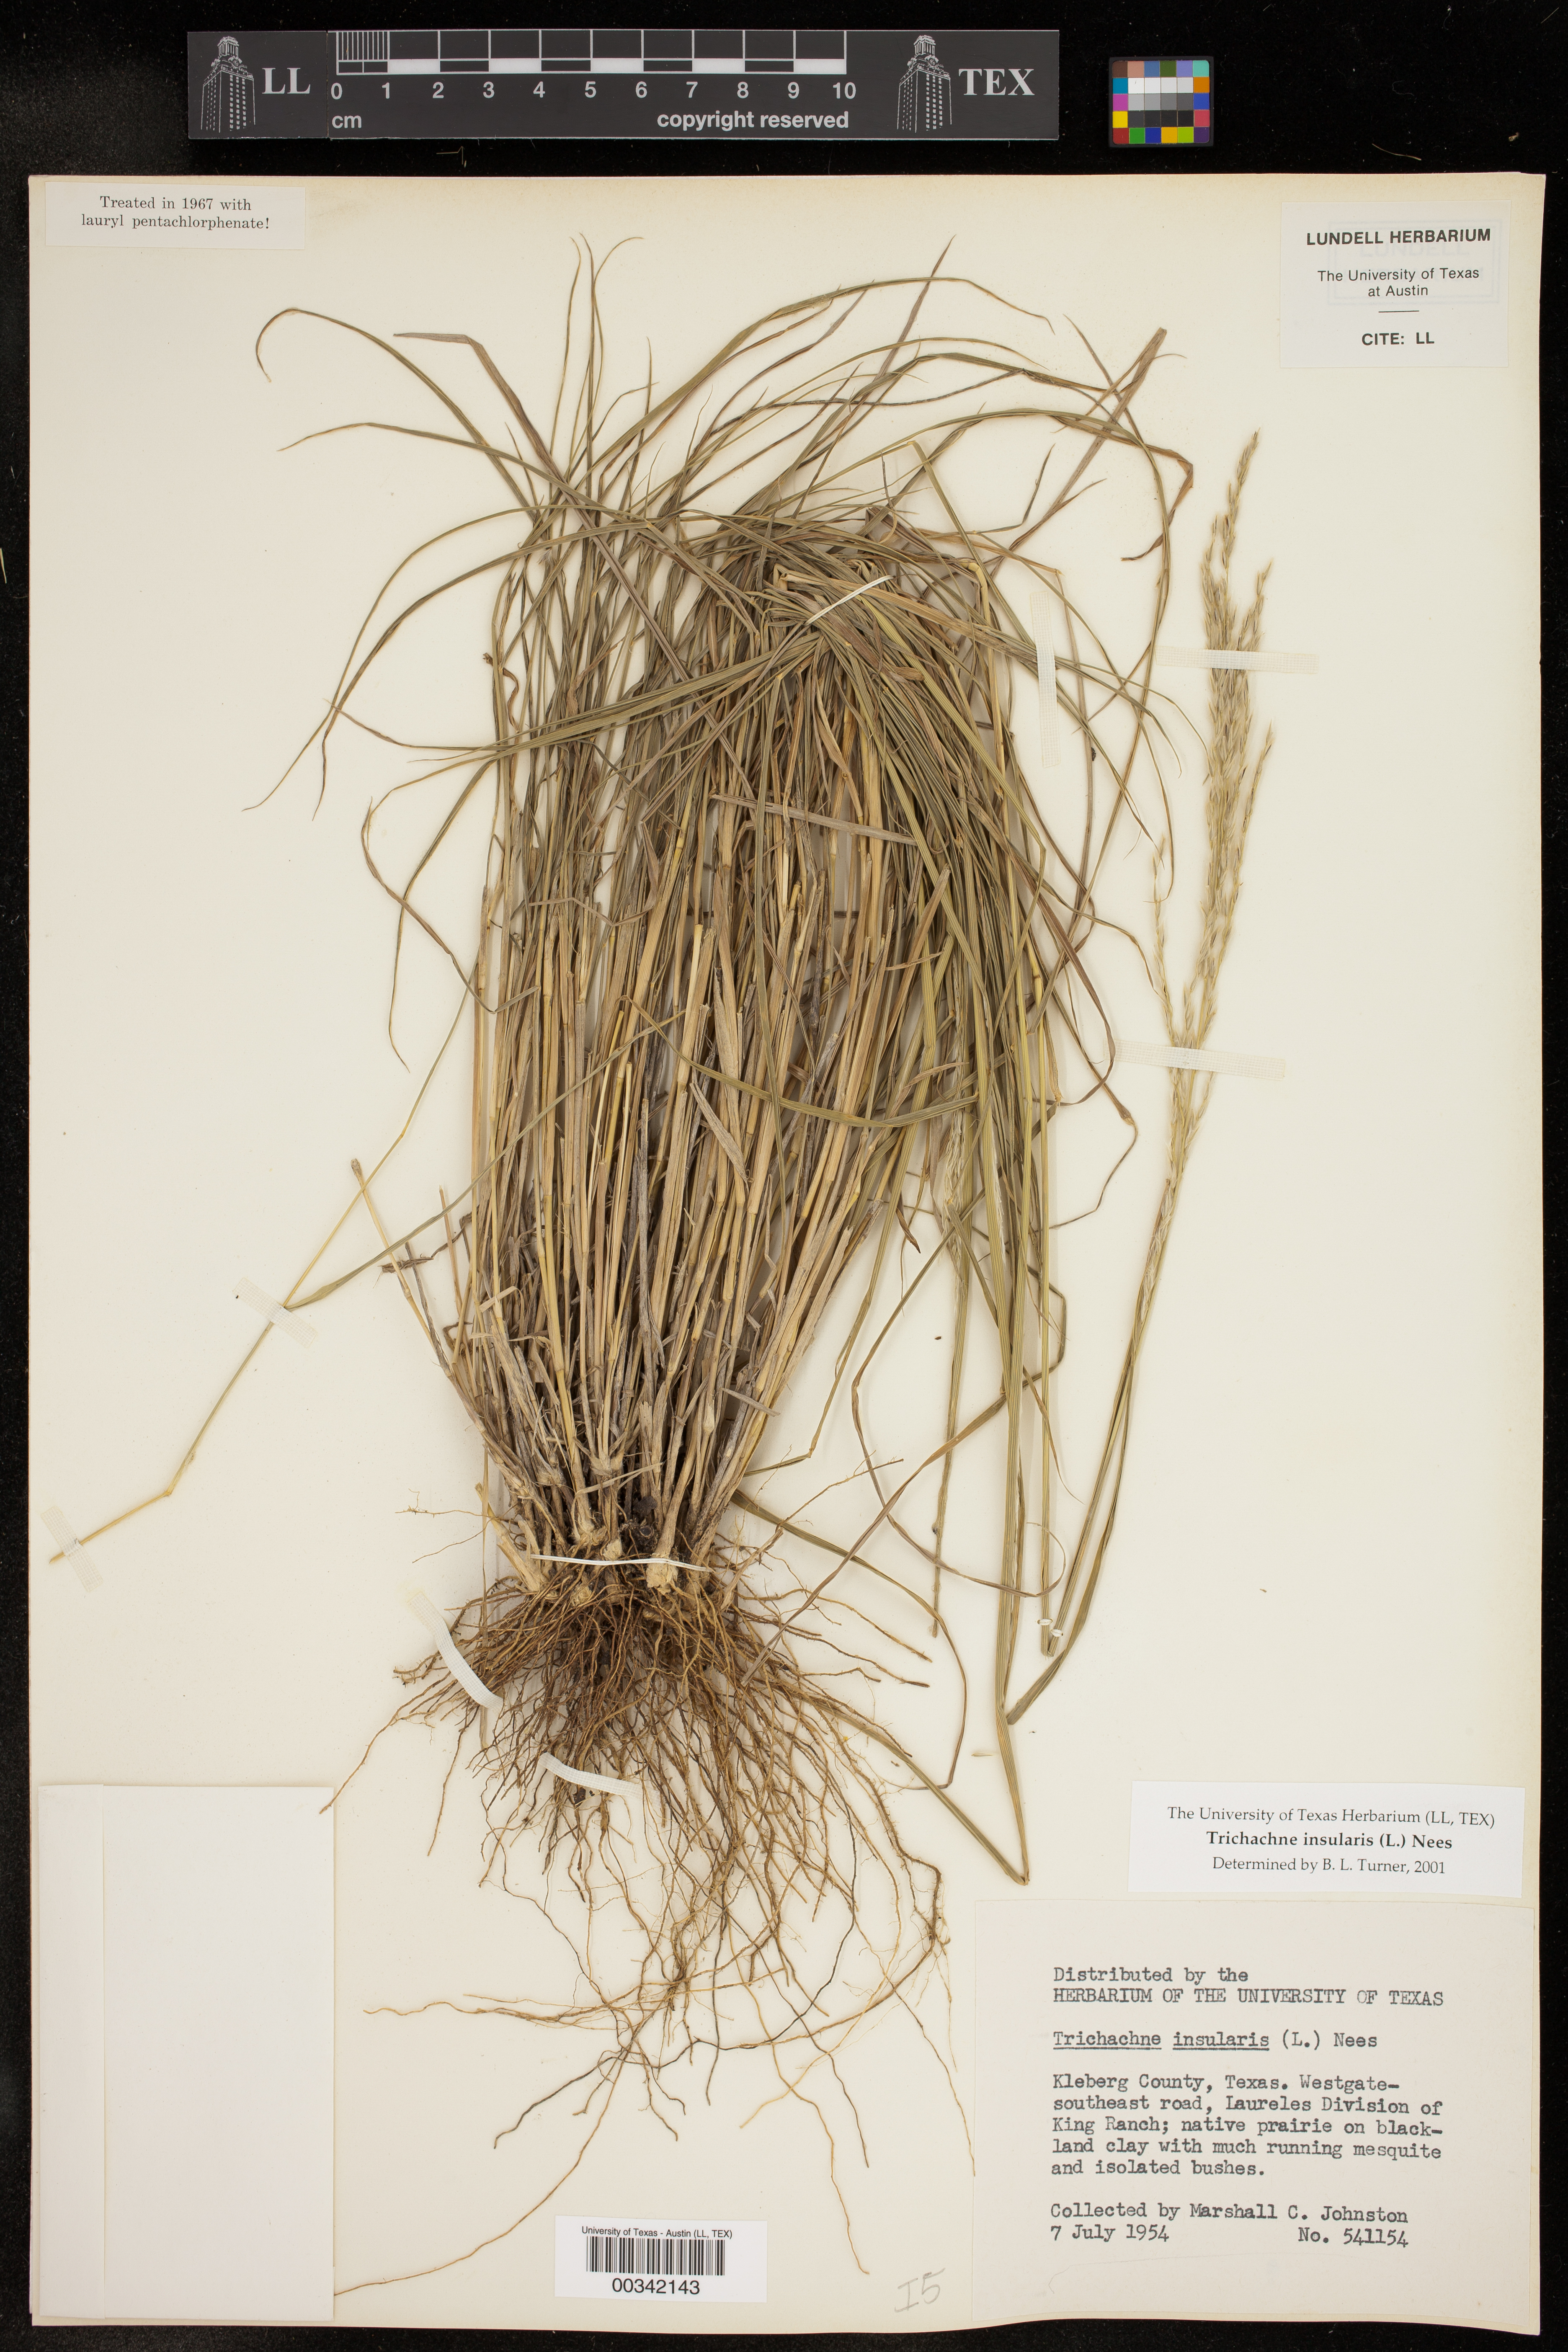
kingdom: Plantae
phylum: Tracheophyta
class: Liliopsida
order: Poales
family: Poaceae
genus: Digitaria
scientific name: Digitaria insularis
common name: Sourgrass
